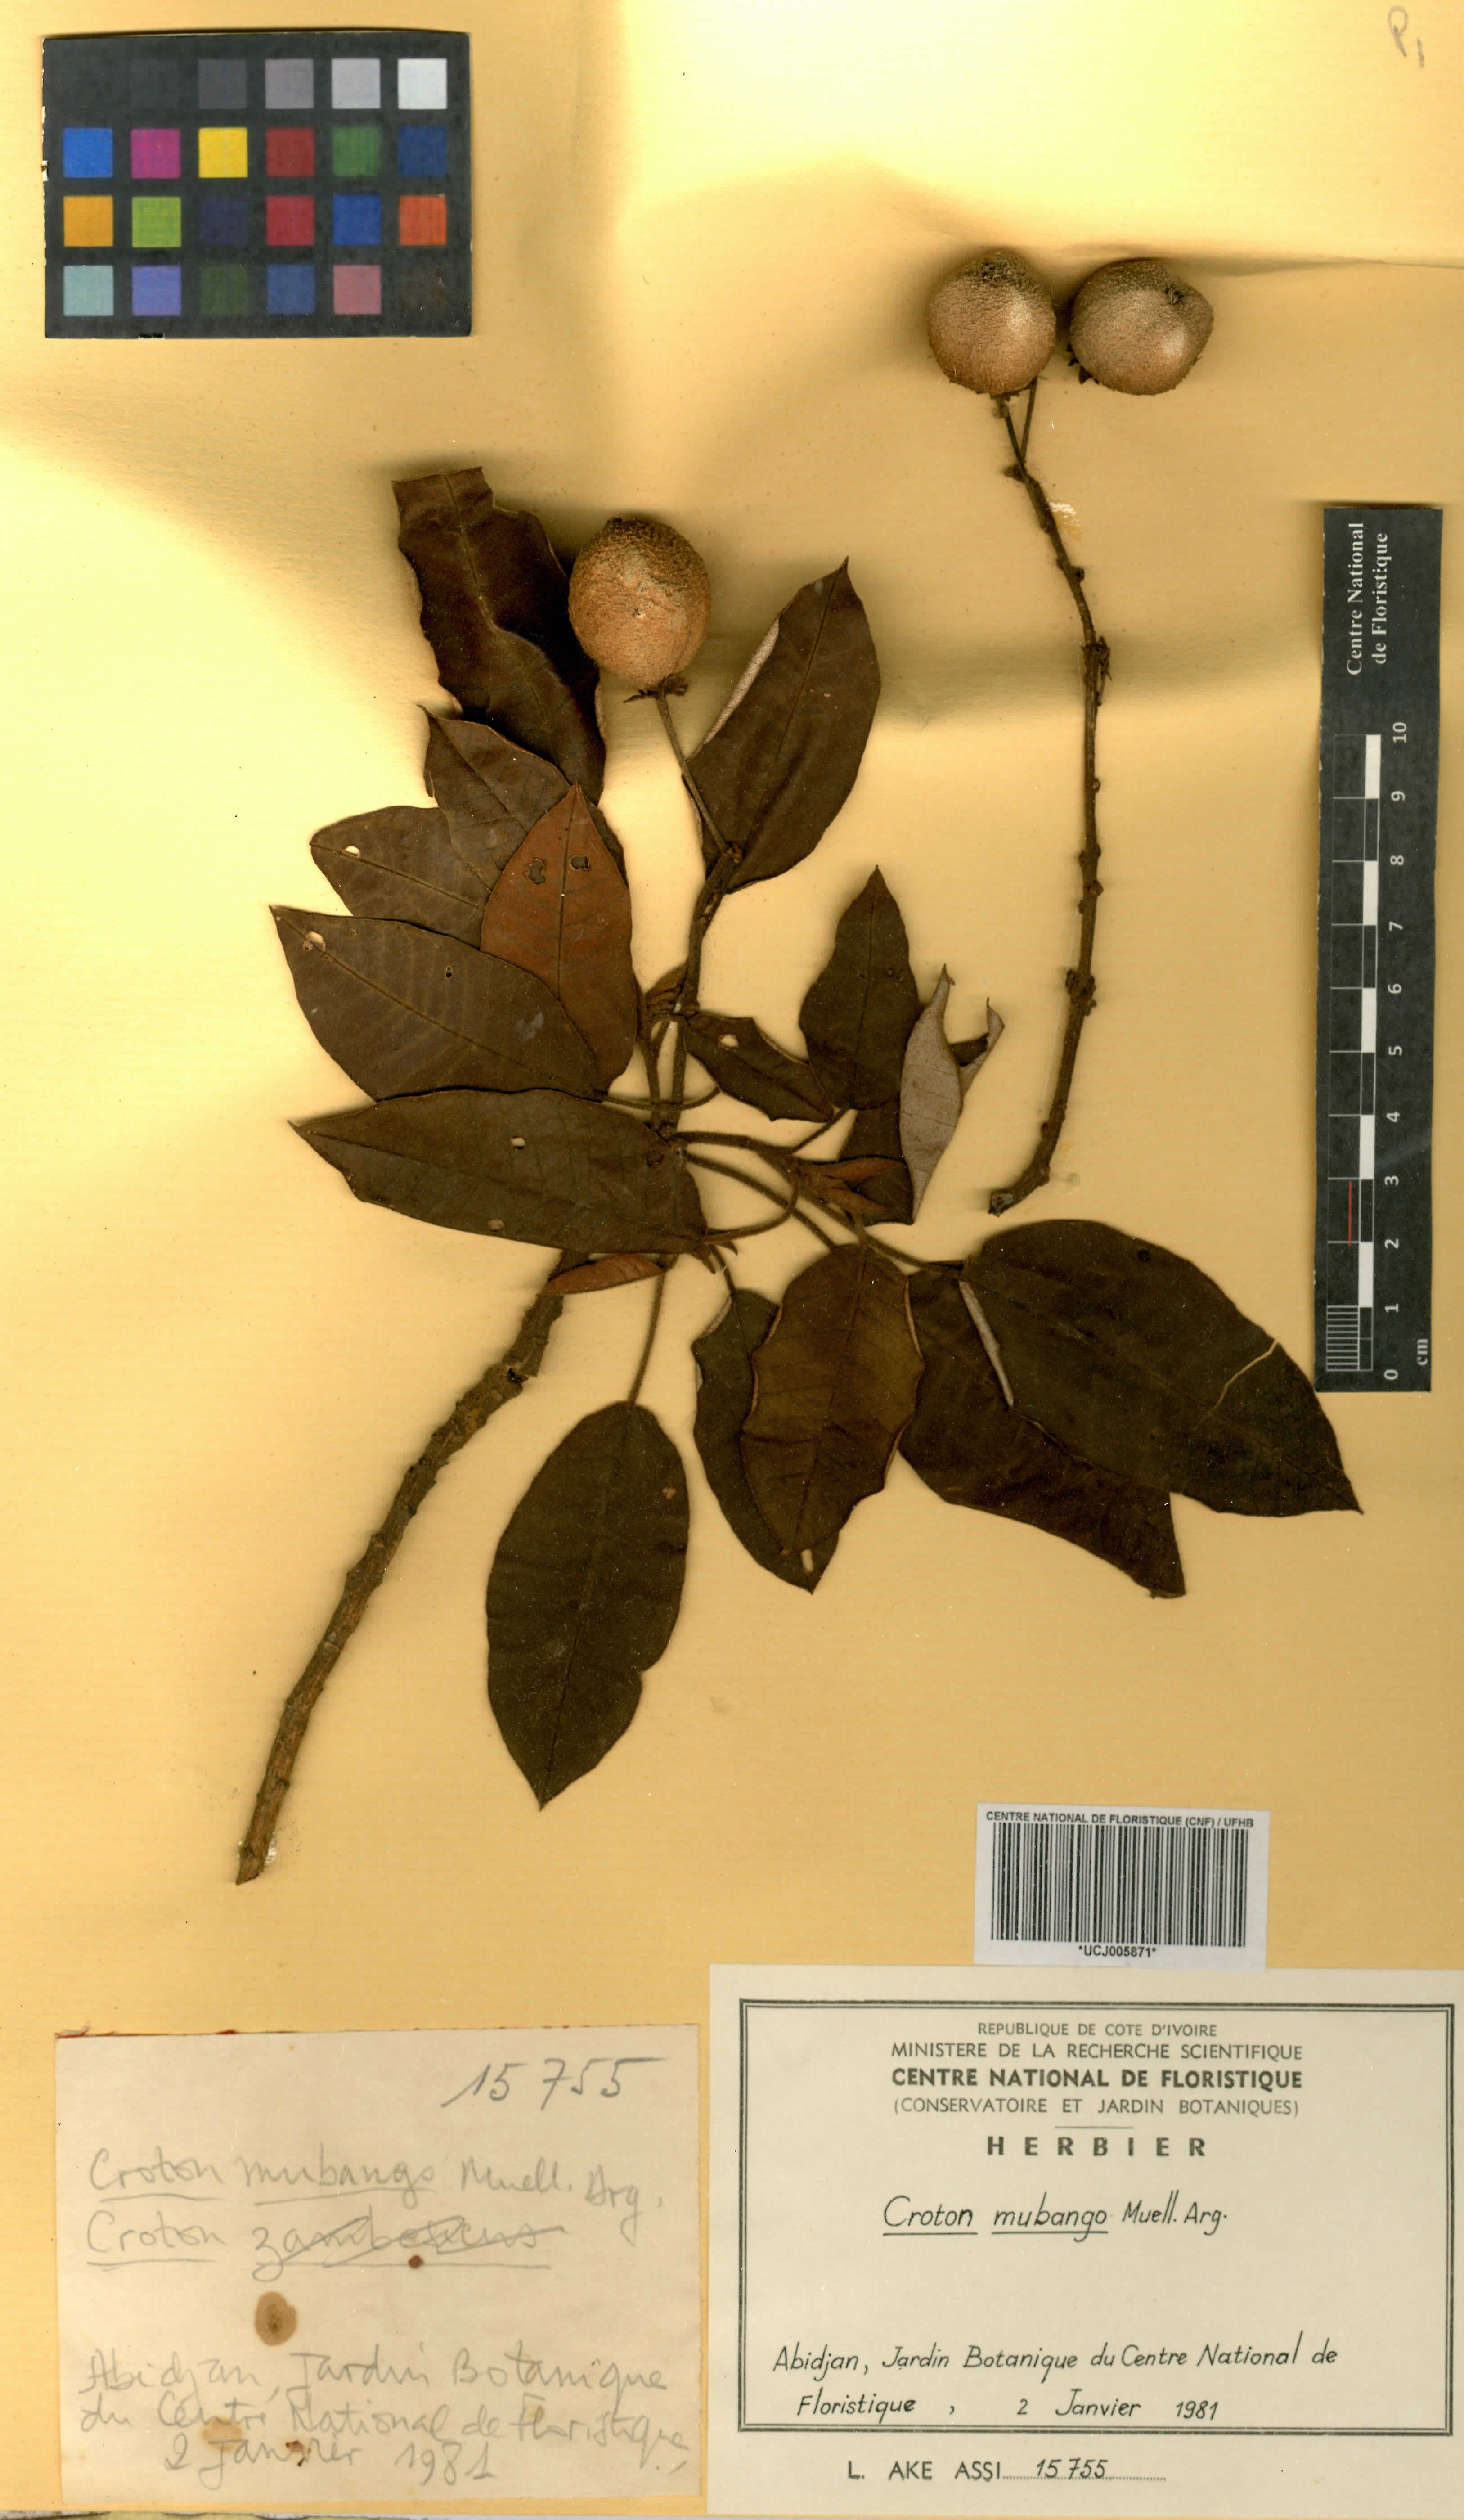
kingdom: Plantae
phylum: Tracheophyta
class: Magnoliopsida
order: Malpighiales
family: Euphorbiaceae
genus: Croton
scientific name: Croton mubango
